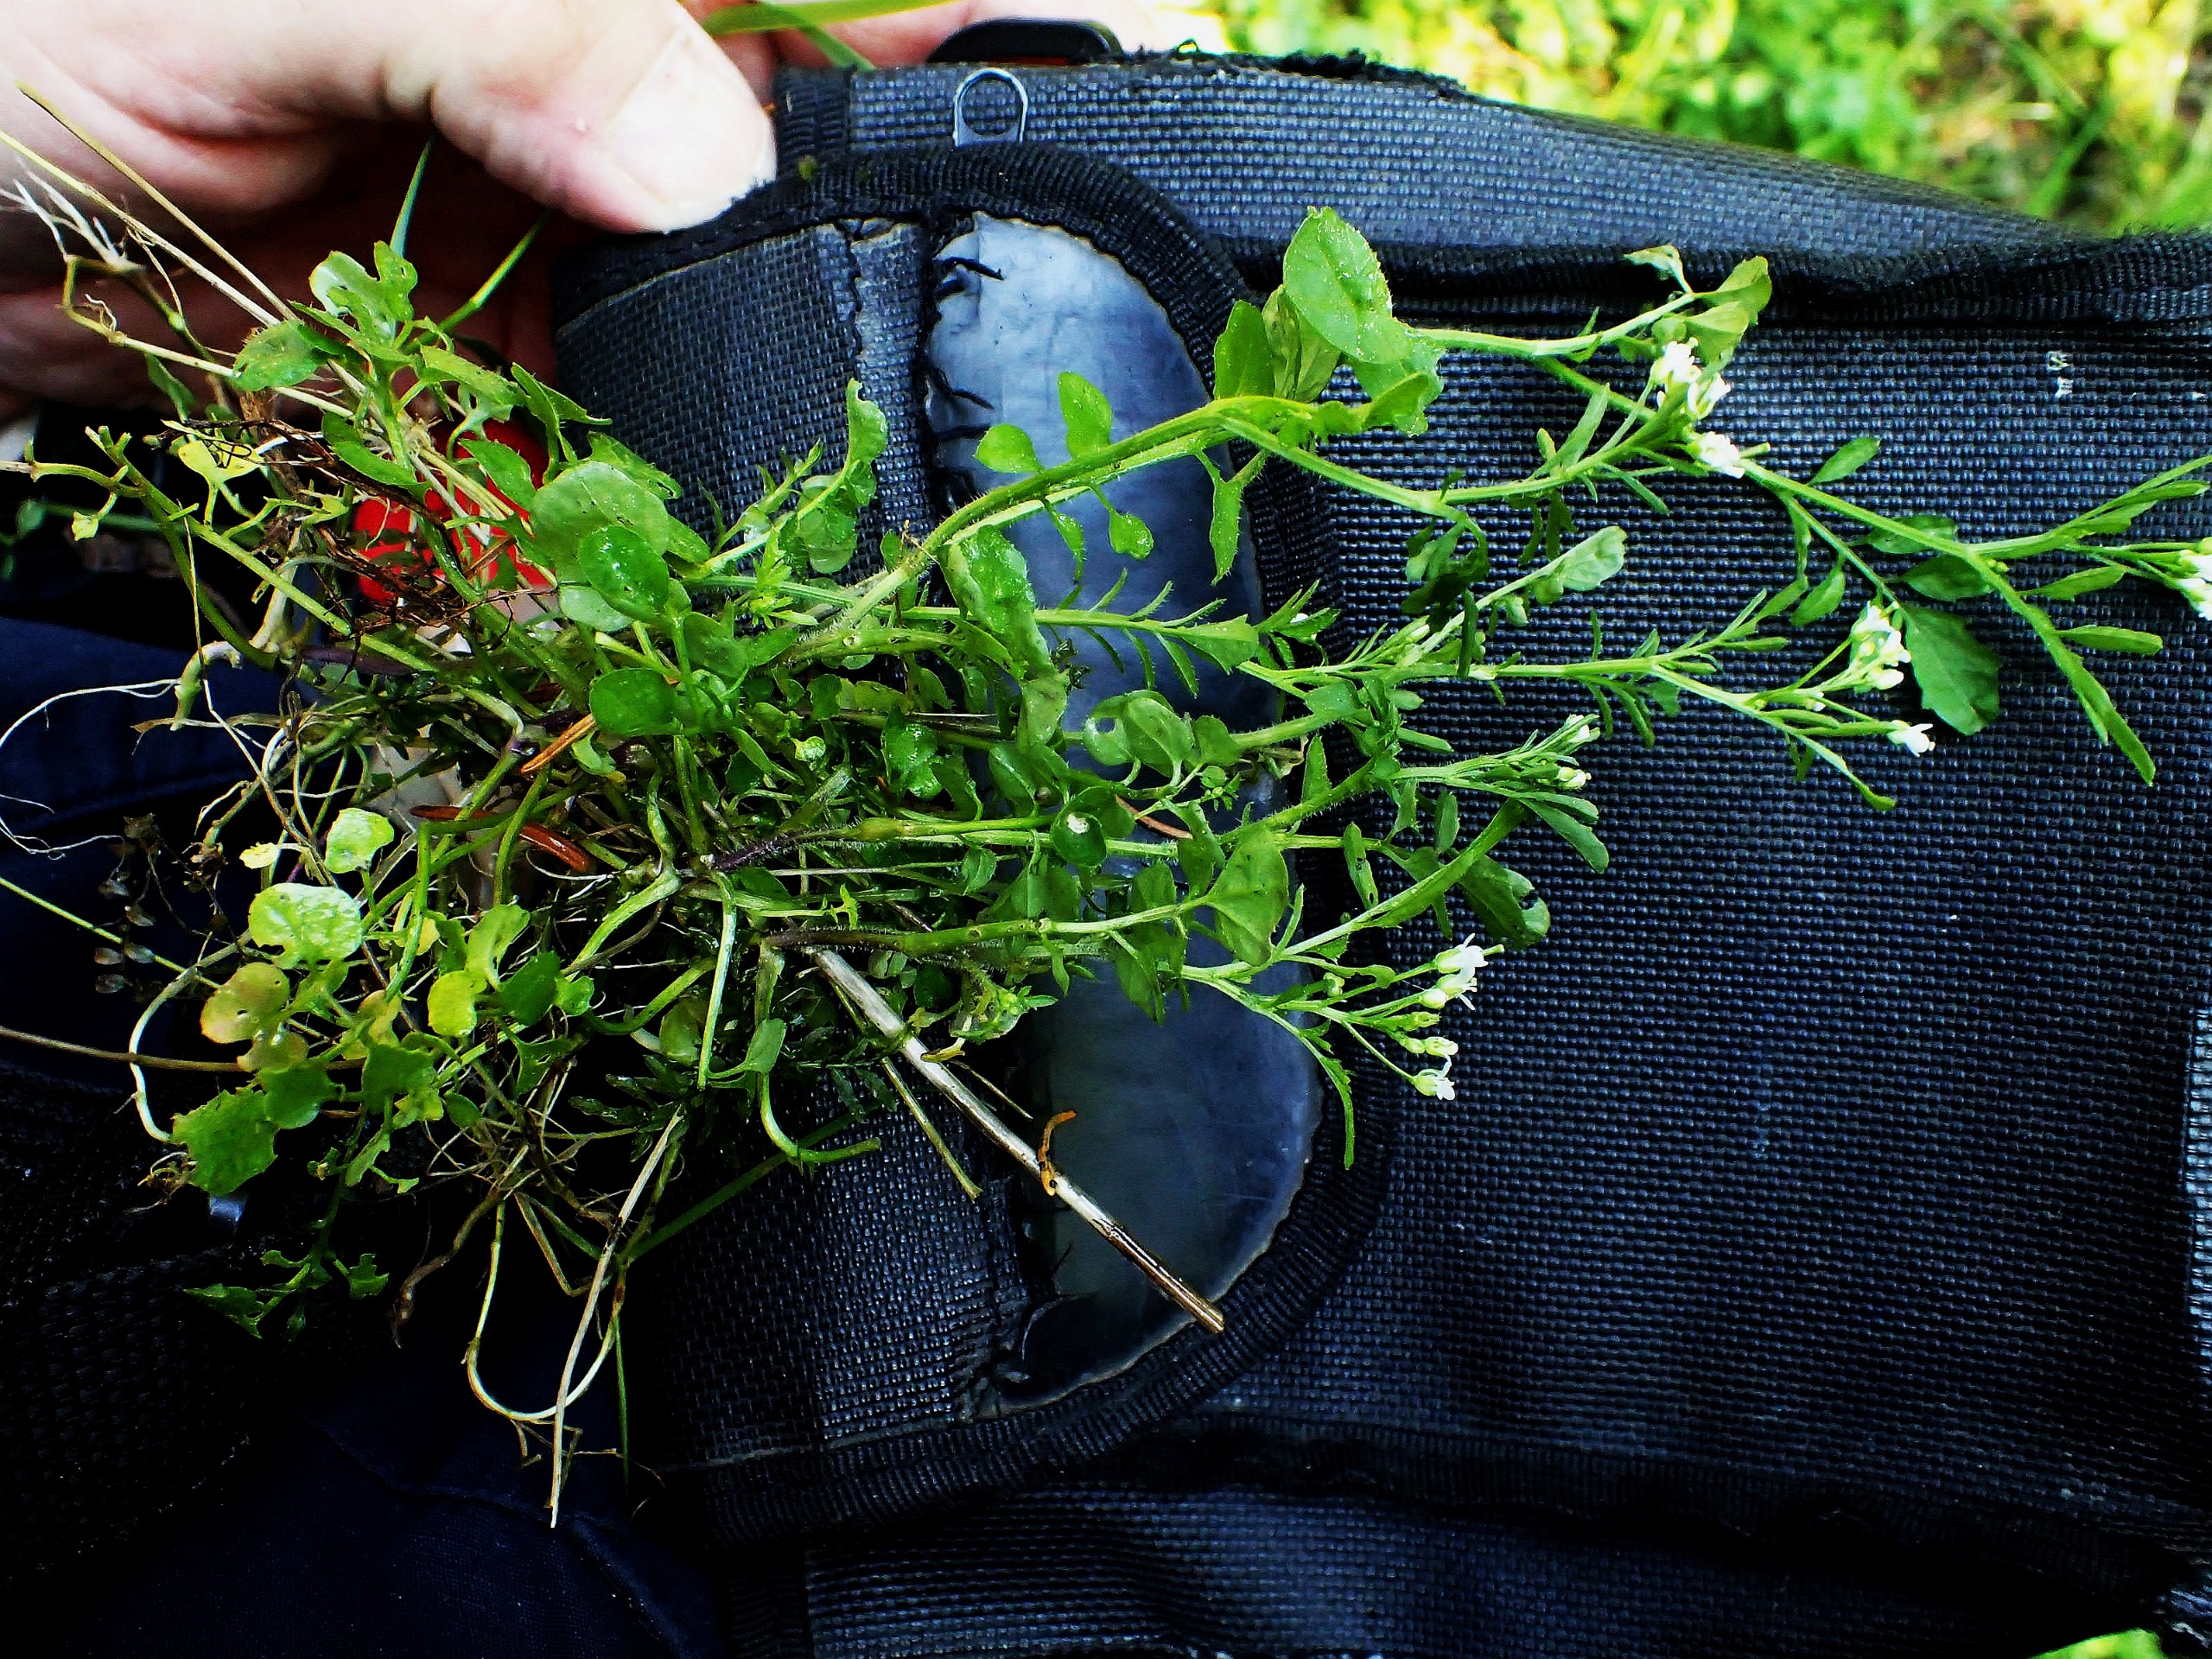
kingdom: Plantae
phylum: Tracheophyta
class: Magnoliopsida
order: Brassicales
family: Brassicaceae
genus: Cardamine
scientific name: Cardamine flexuosa
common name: Skov-springklap
